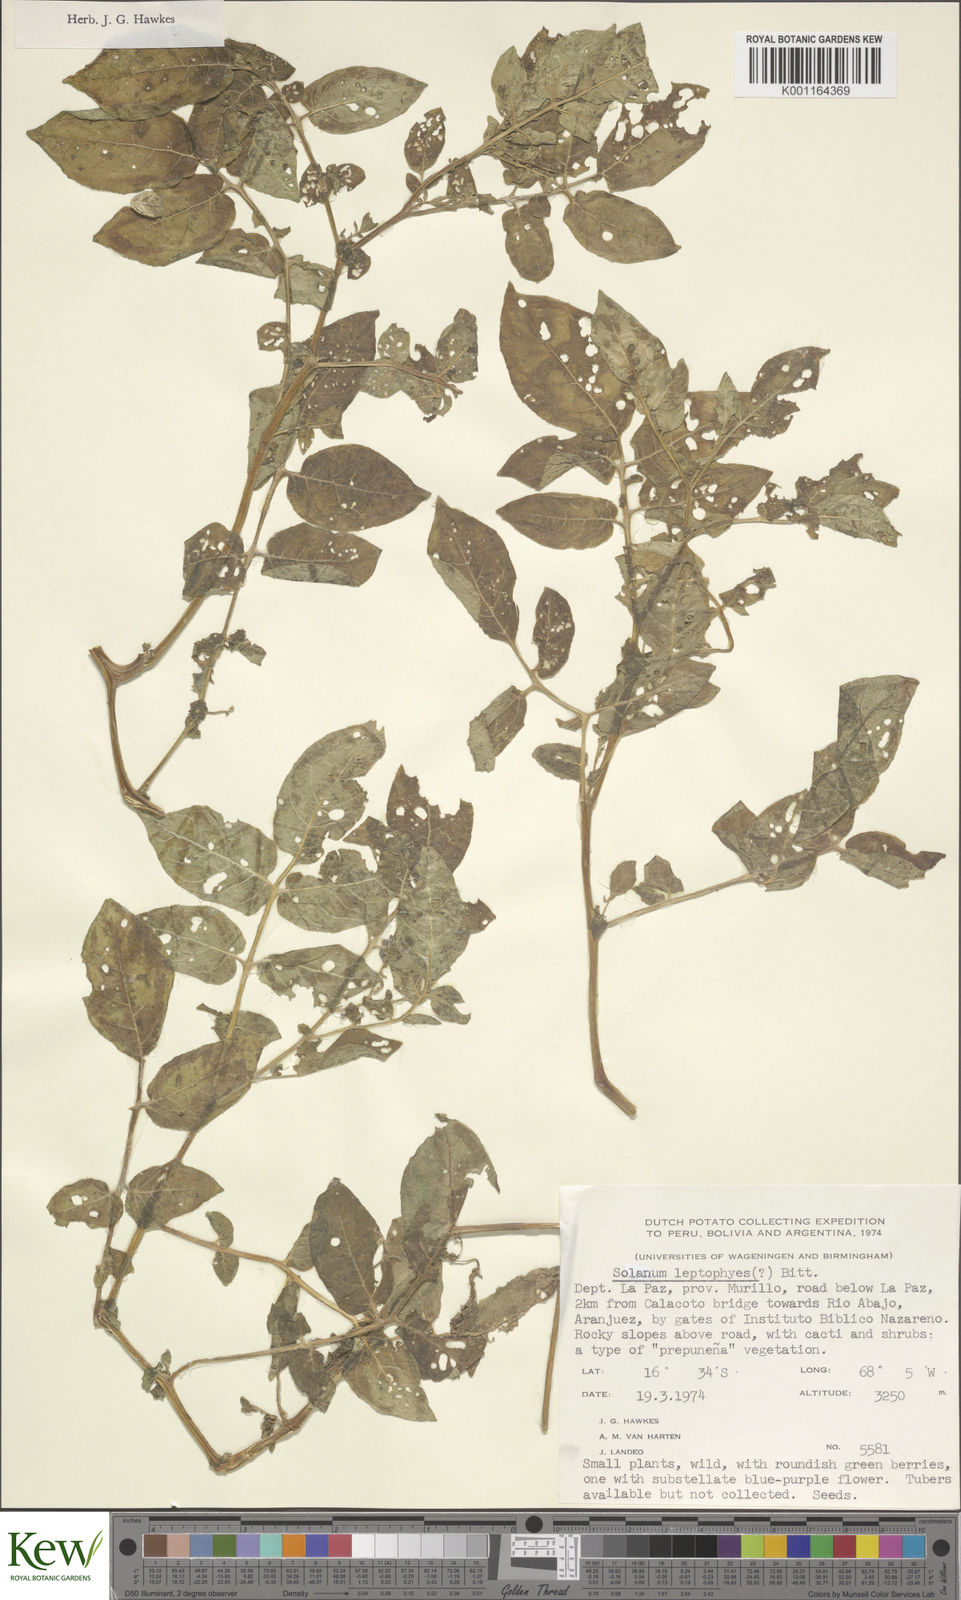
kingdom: Plantae
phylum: Tracheophyta
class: Magnoliopsida
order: Solanales
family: Solanaceae
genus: Solanum
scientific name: Solanum brevicaule
